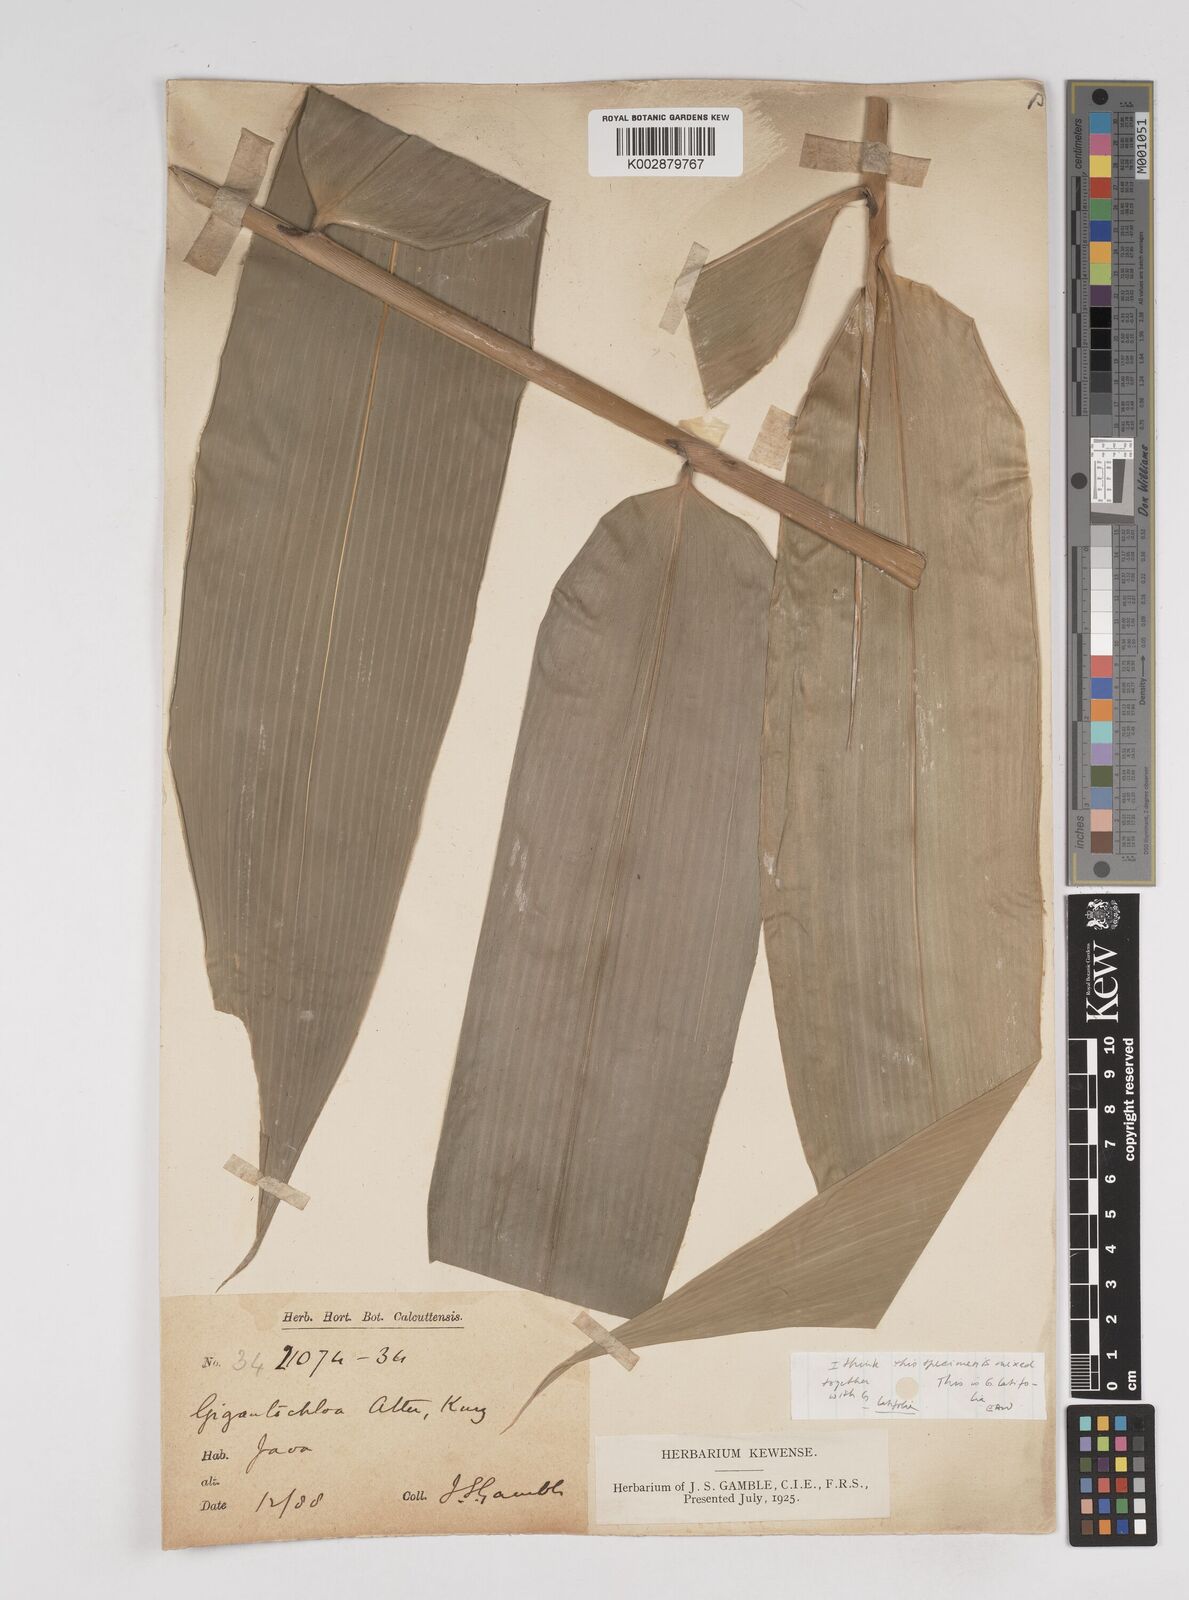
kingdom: Plantae
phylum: Tracheophyta
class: Liliopsida
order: Poales
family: Poaceae
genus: Gigantochloa
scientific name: Gigantochloa atter
